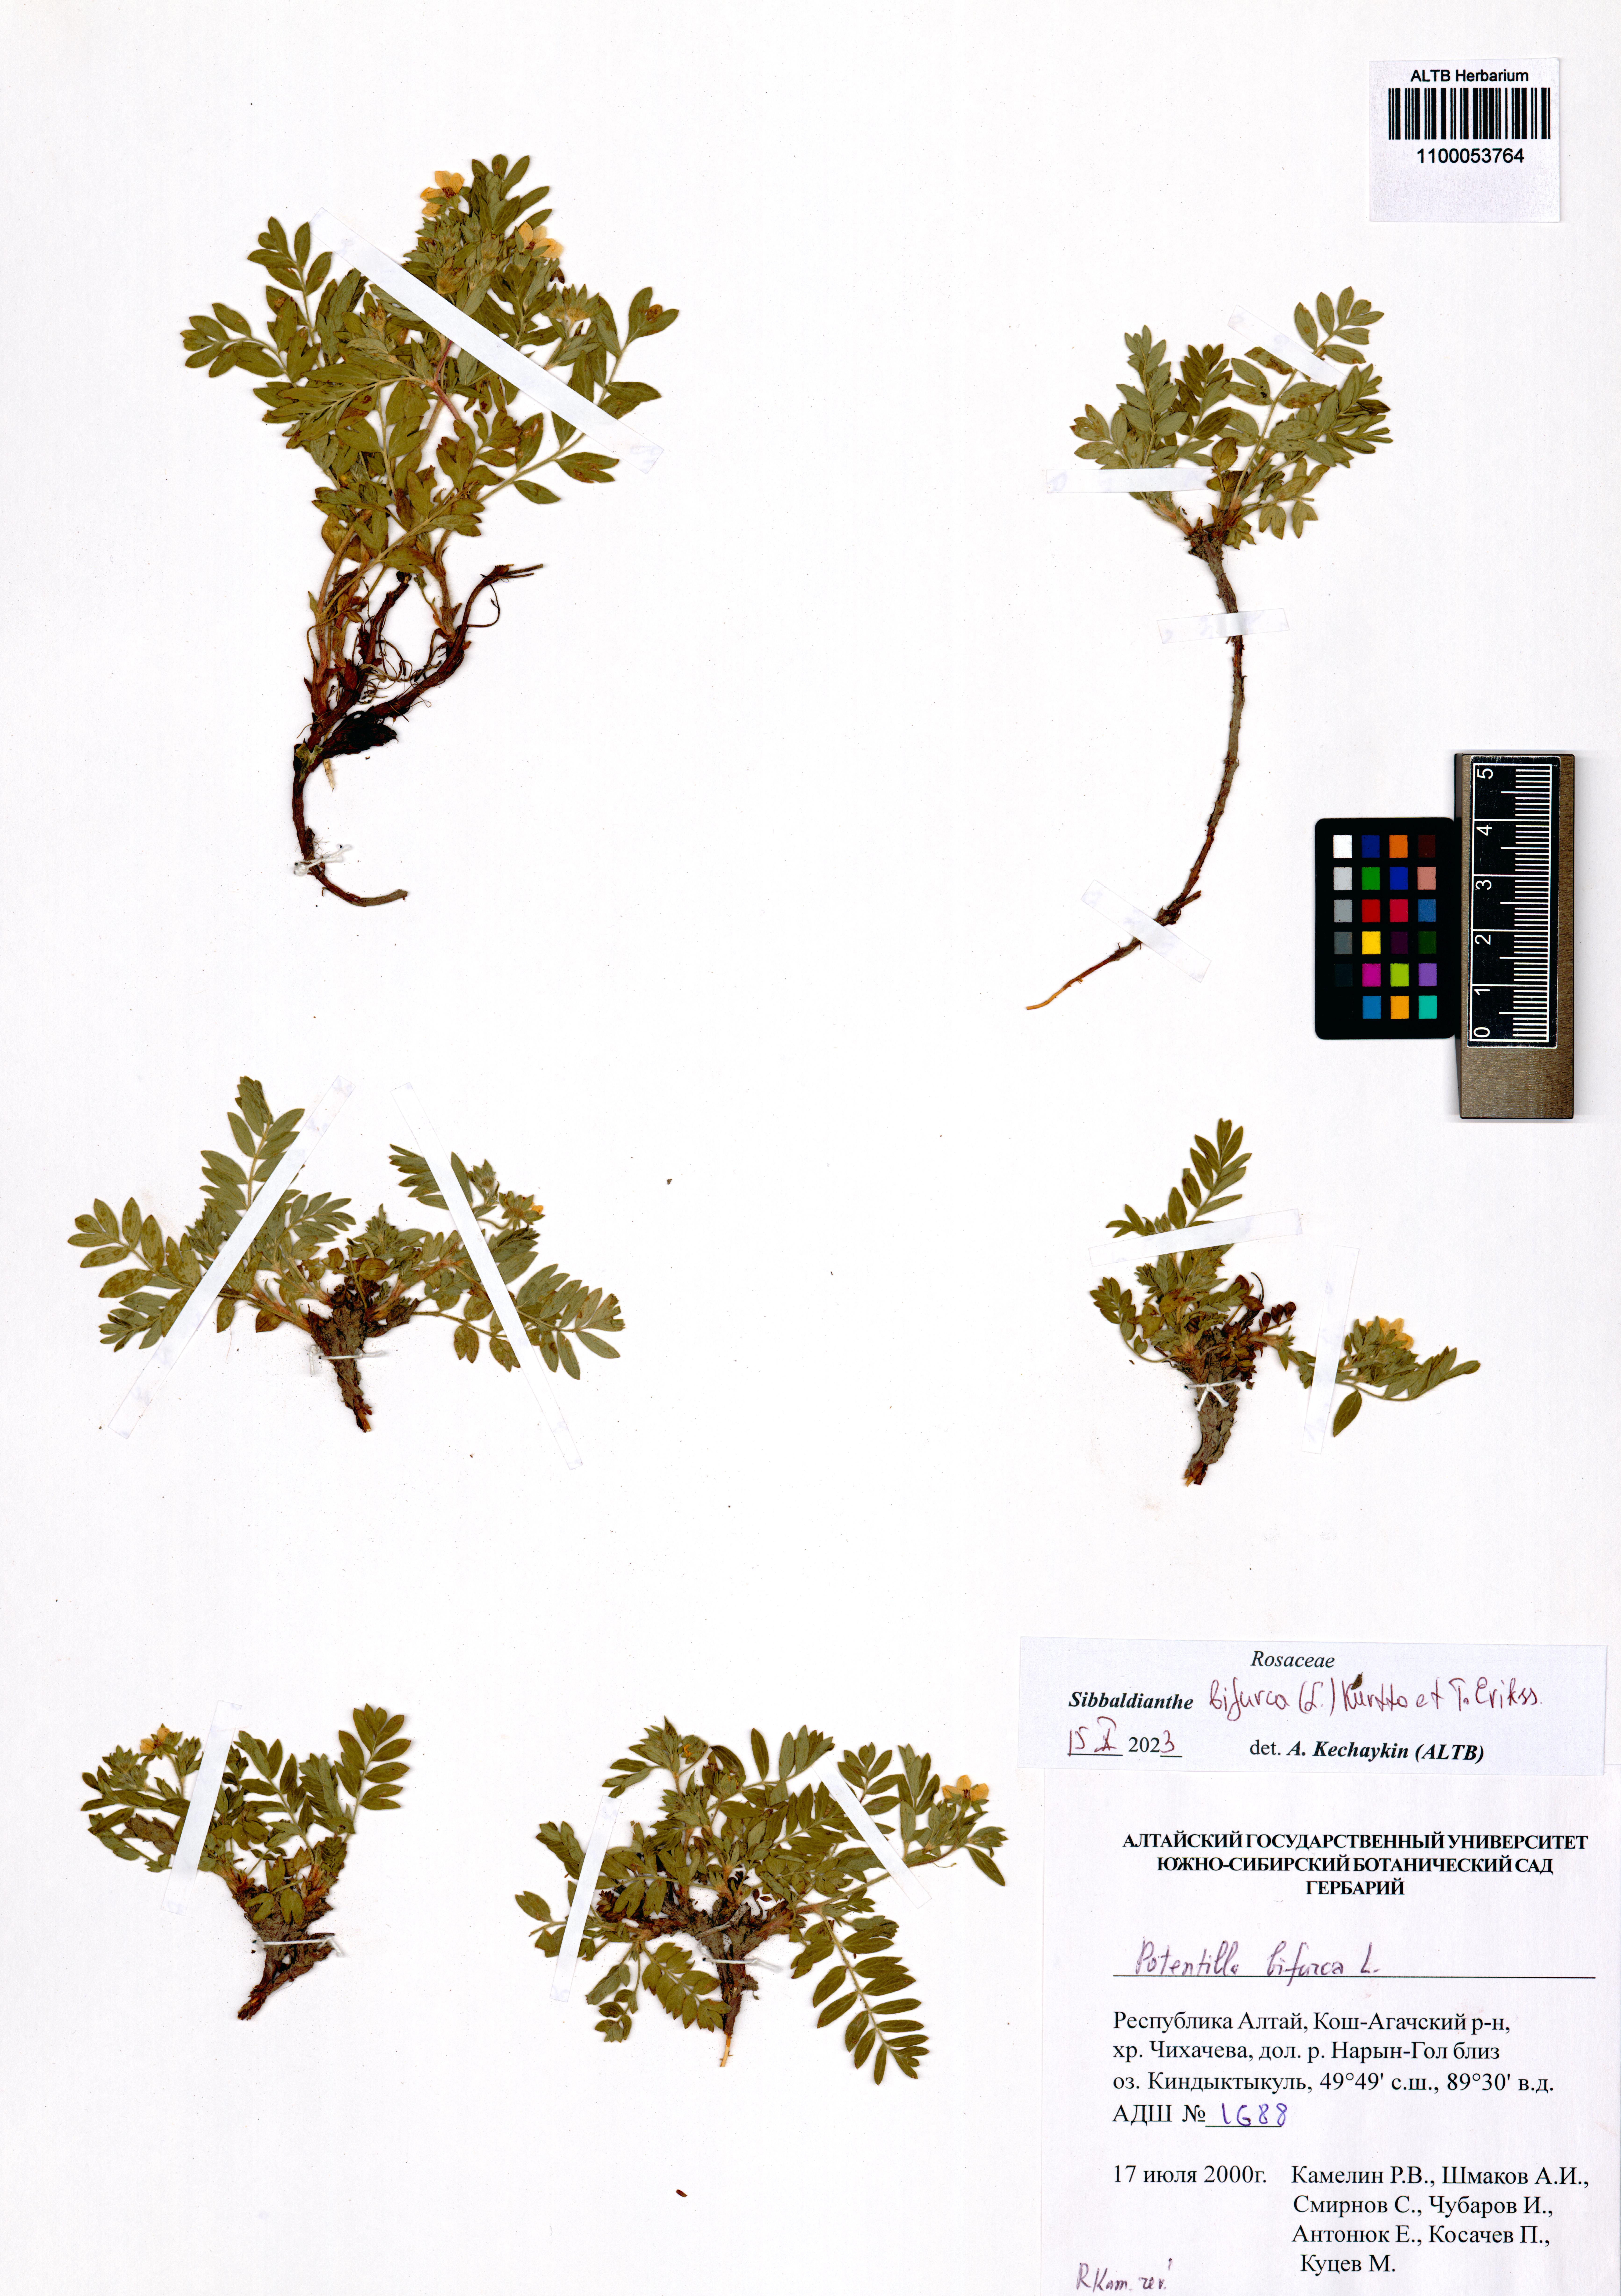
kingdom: Plantae
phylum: Tracheophyta
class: Magnoliopsida
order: Rosales
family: Rosaceae
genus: Sibbaldianthe
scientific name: Sibbaldianthe bifurca
